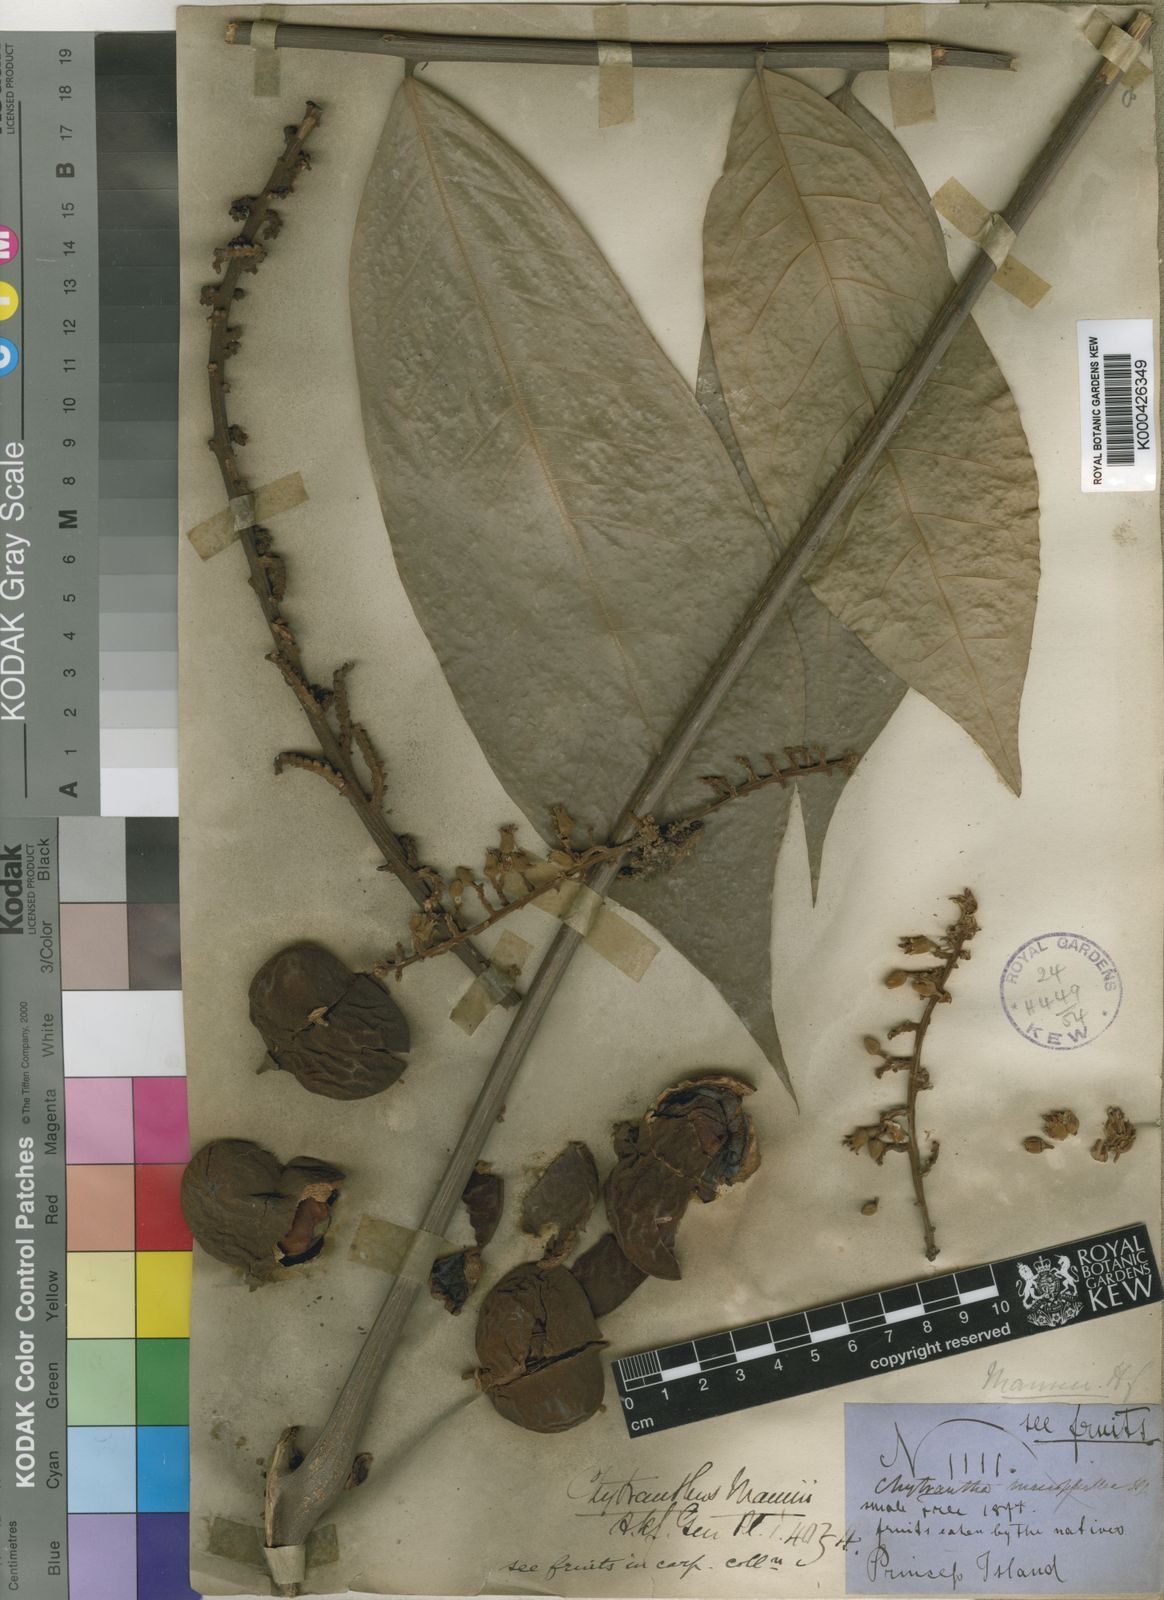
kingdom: Plantae
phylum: Tracheophyta
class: Magnoliopsida
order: Sapindales
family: Sapindaceae
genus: Chytranthus
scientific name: Chytranthus mannii
